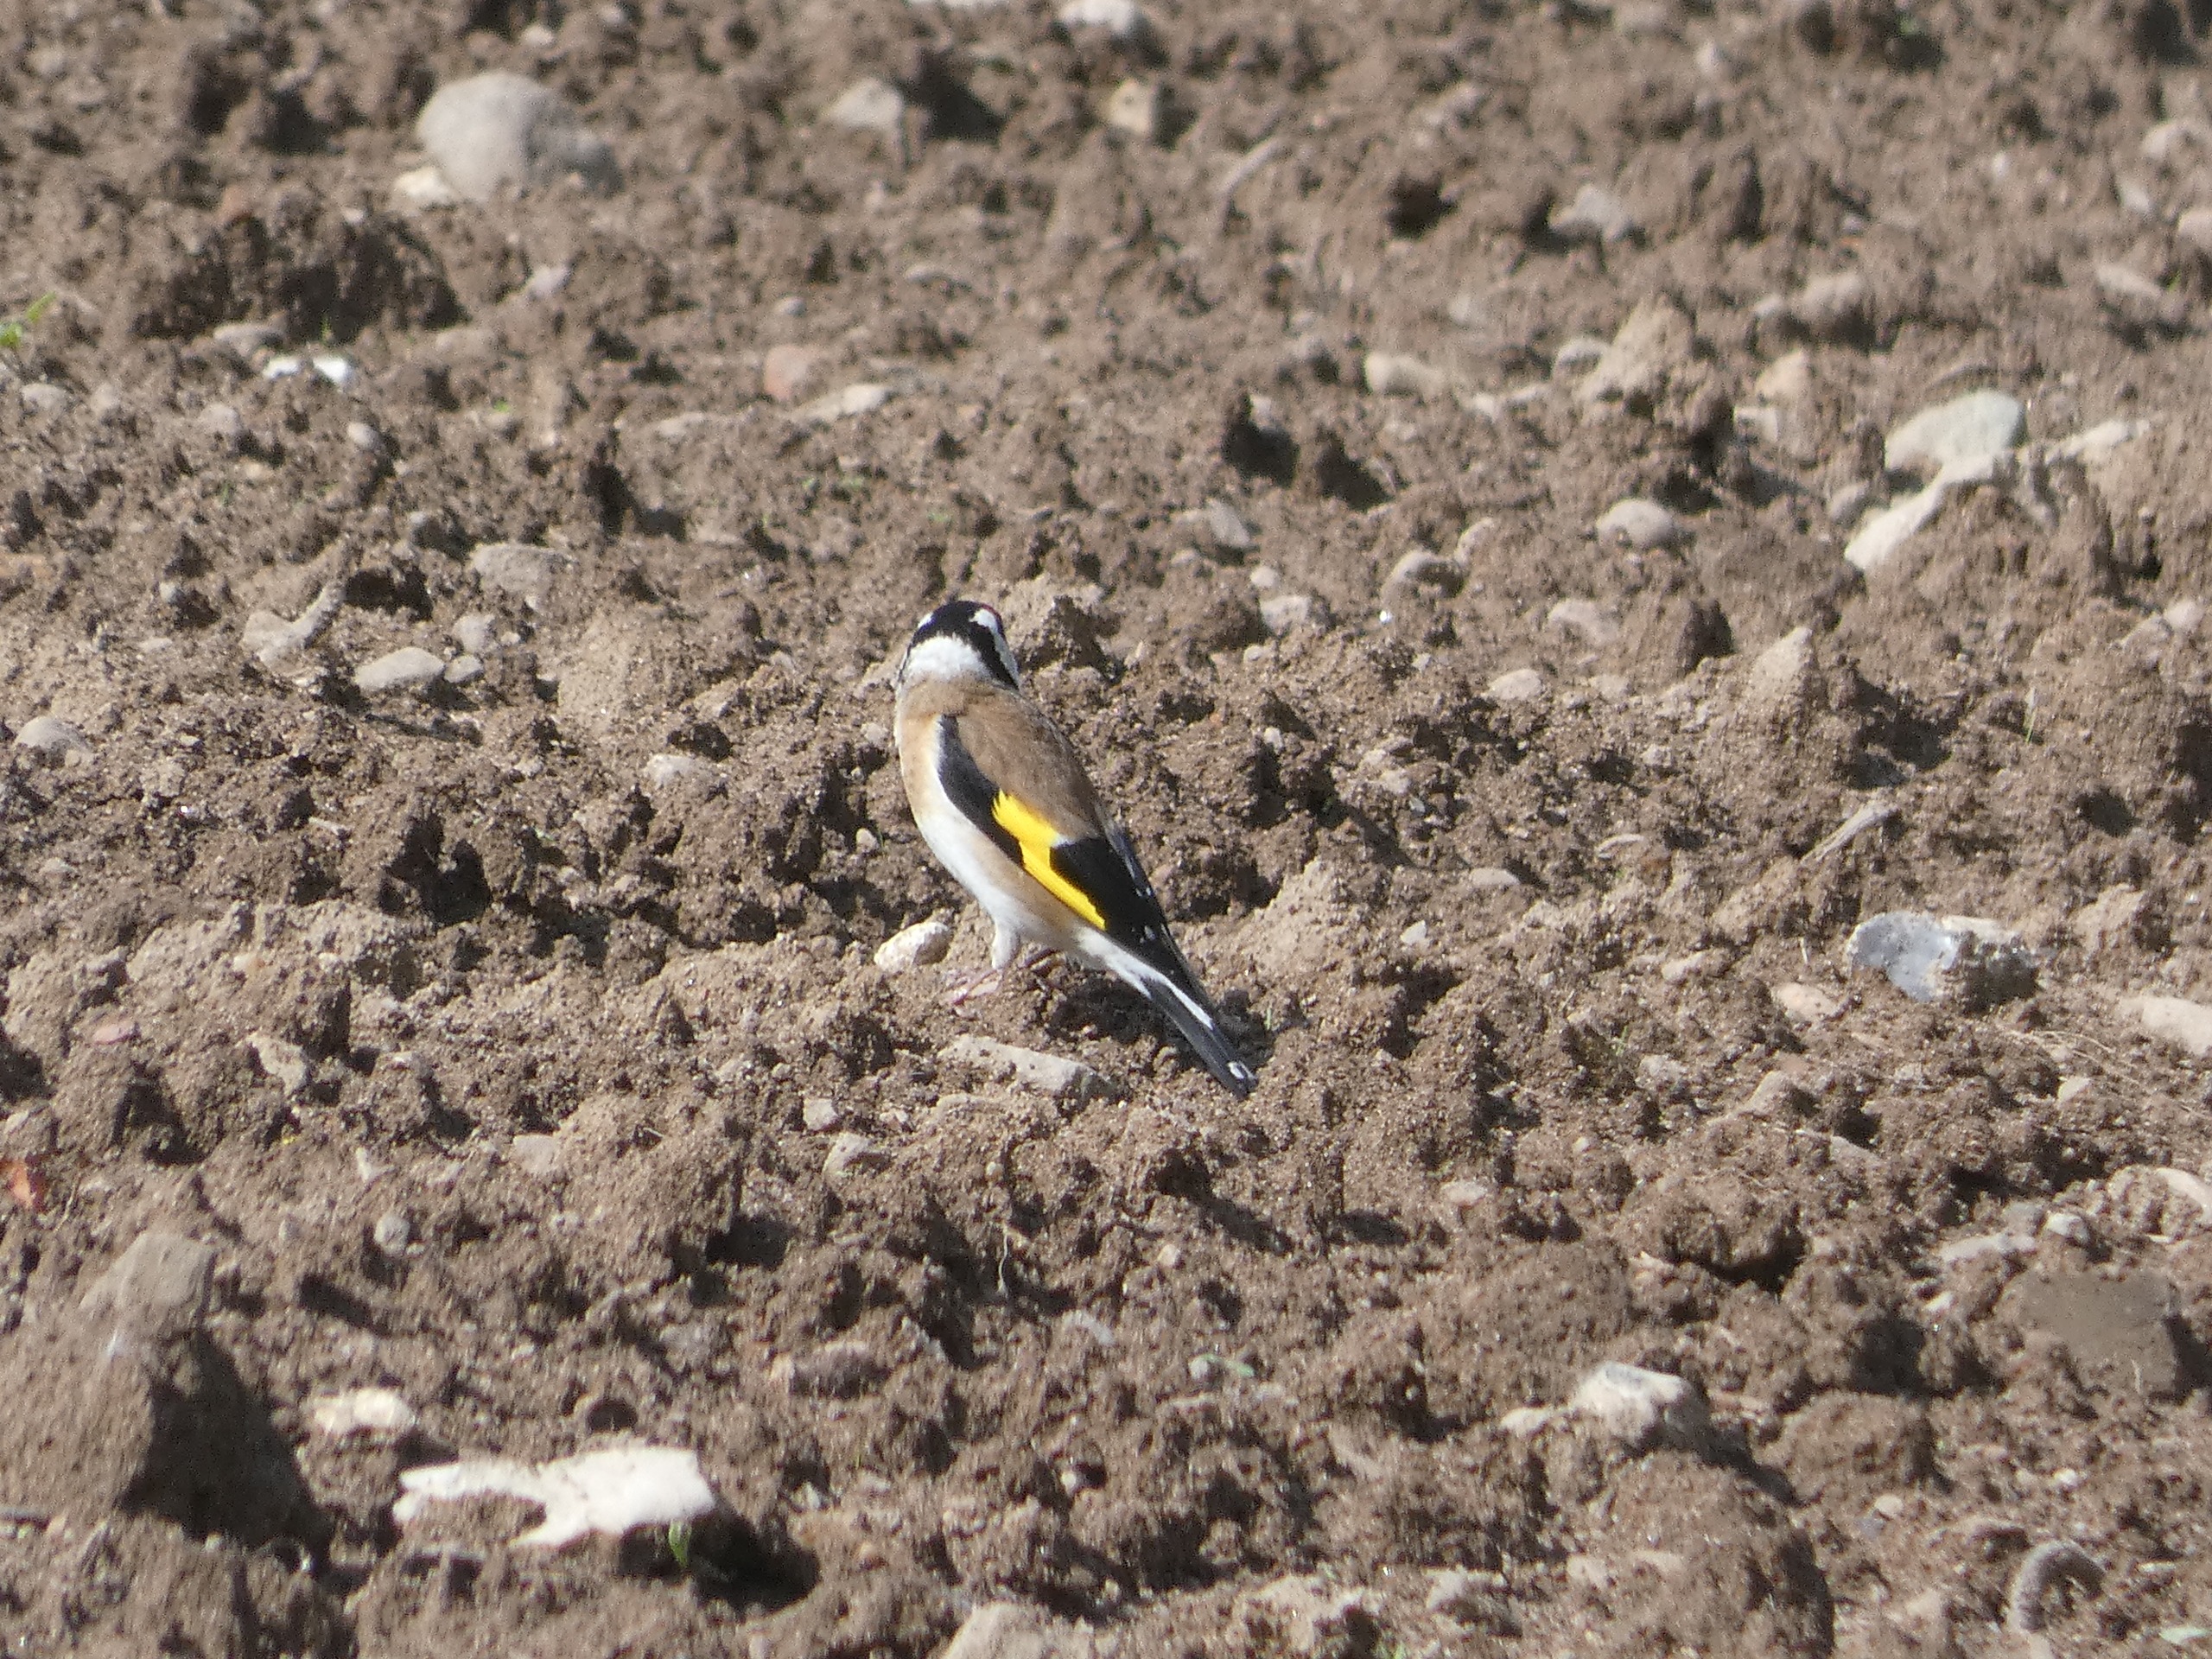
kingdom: Animalia
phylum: Chordata
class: Aves
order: Passeriformes
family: Fringillidae
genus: Carduelis
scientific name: Carduelis carduelis
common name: Stillits
